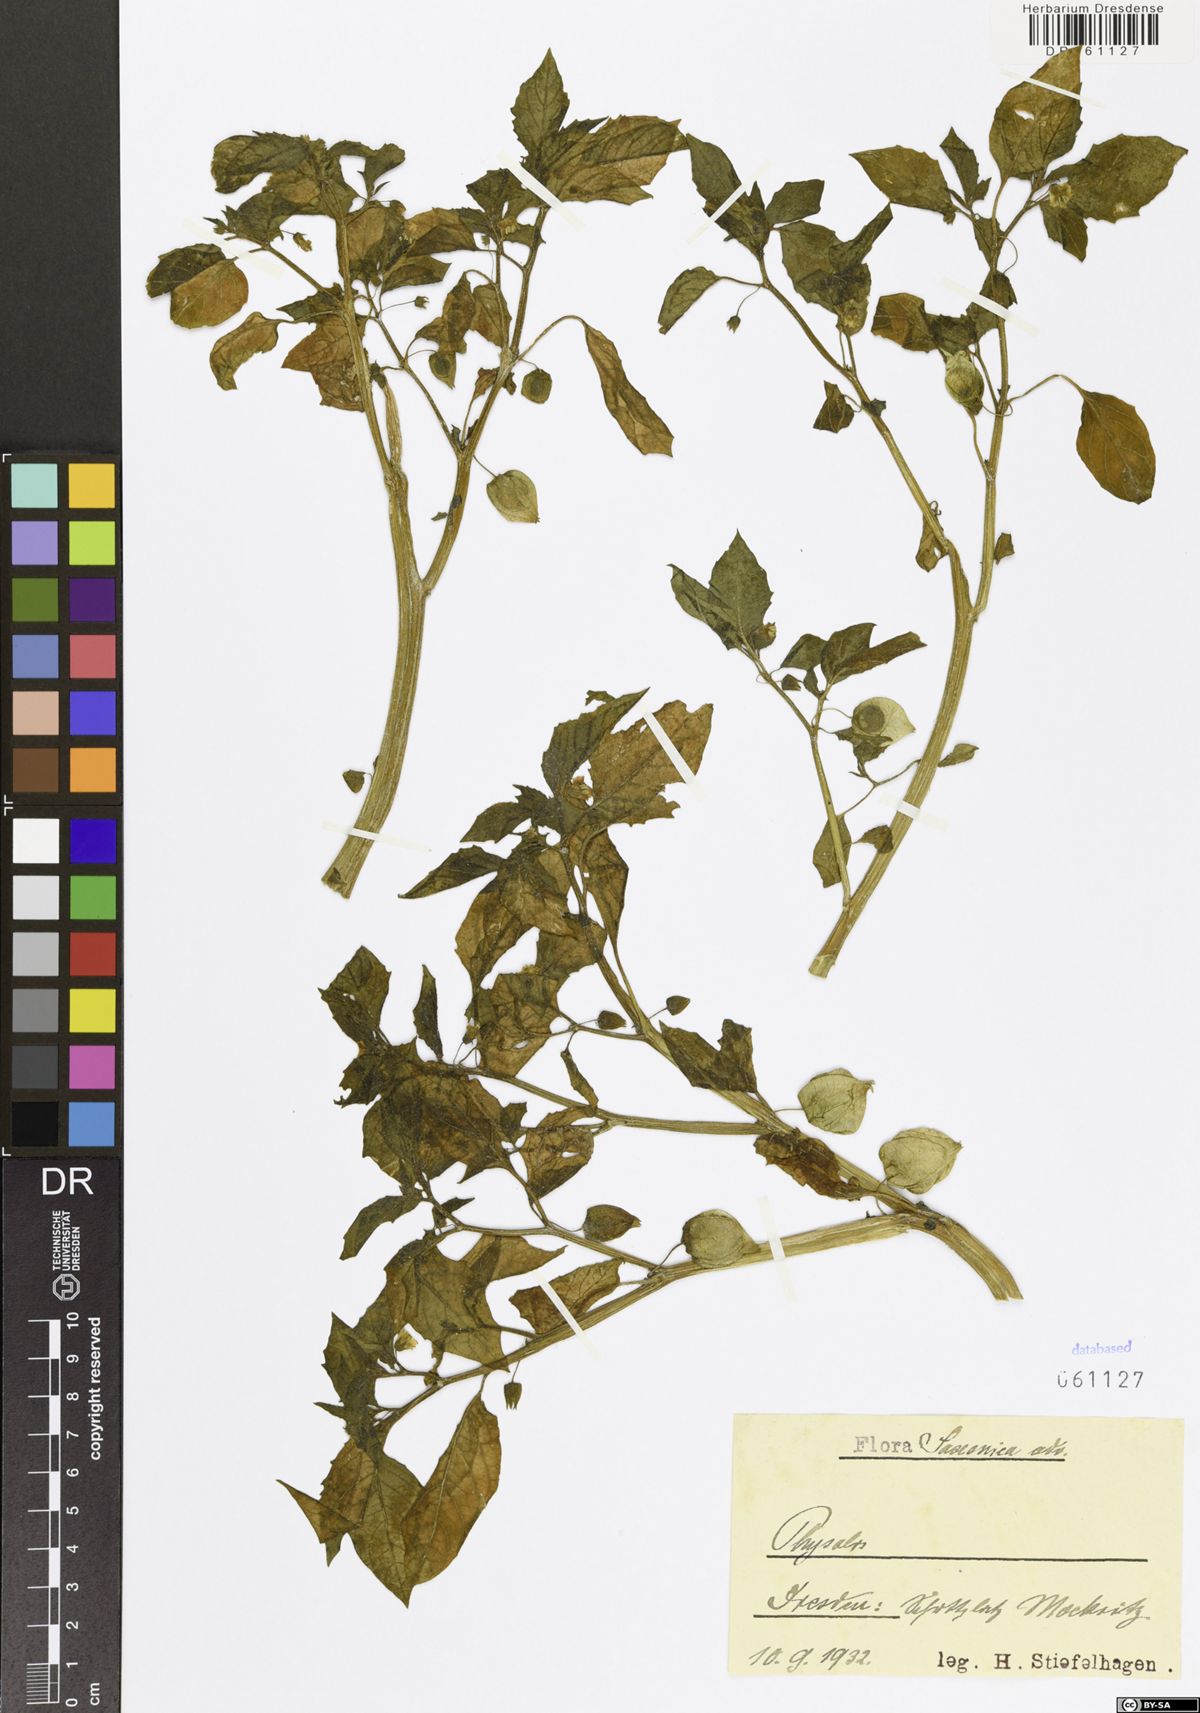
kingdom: Plantae
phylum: Tracheophyta
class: Magnoliopsida
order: Solanales
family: Solanaceae
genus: Physalis
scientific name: Physalis
